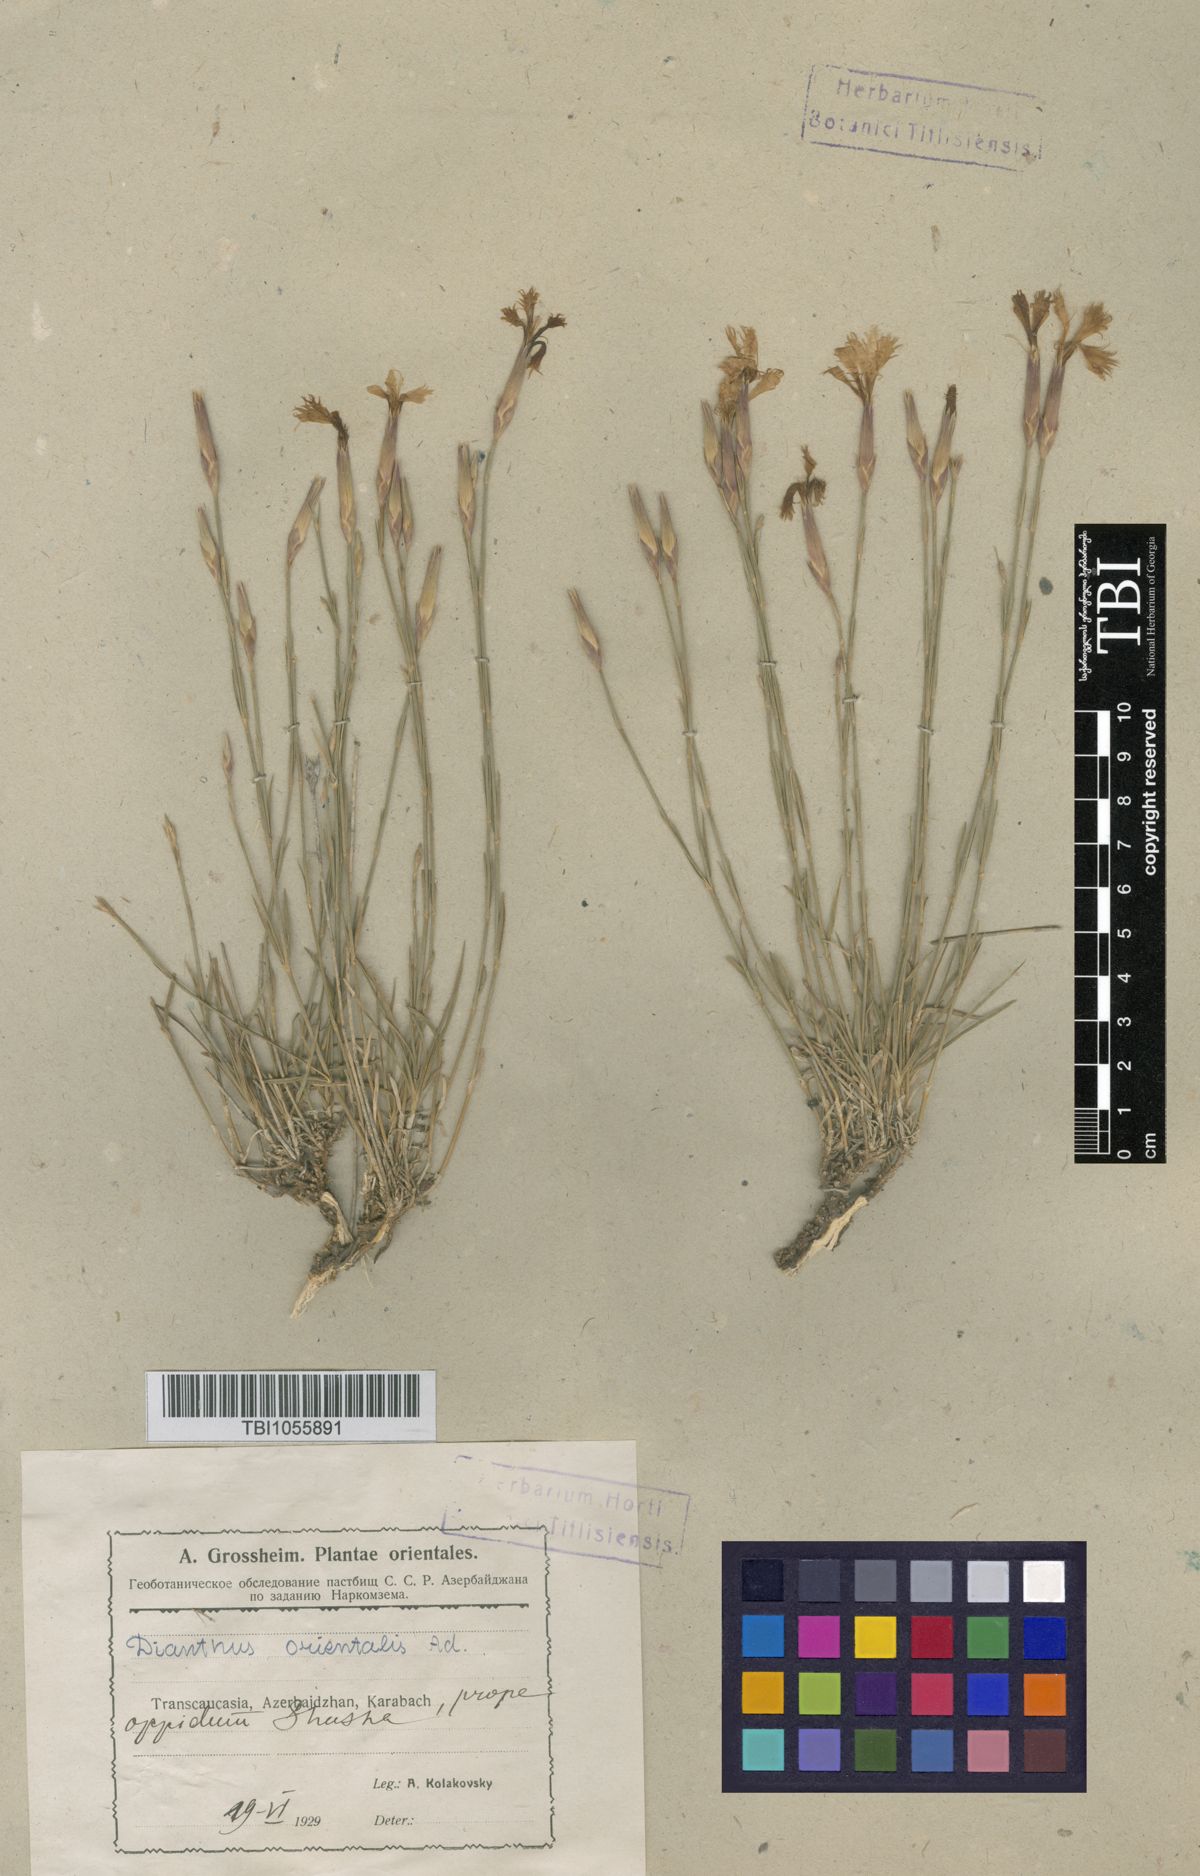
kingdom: Plantae
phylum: Tracheophyta
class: Magnoliopsida
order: Caryophyllales
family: Caryophyllaceae
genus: Dianthus
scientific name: Dianthus orientalis
